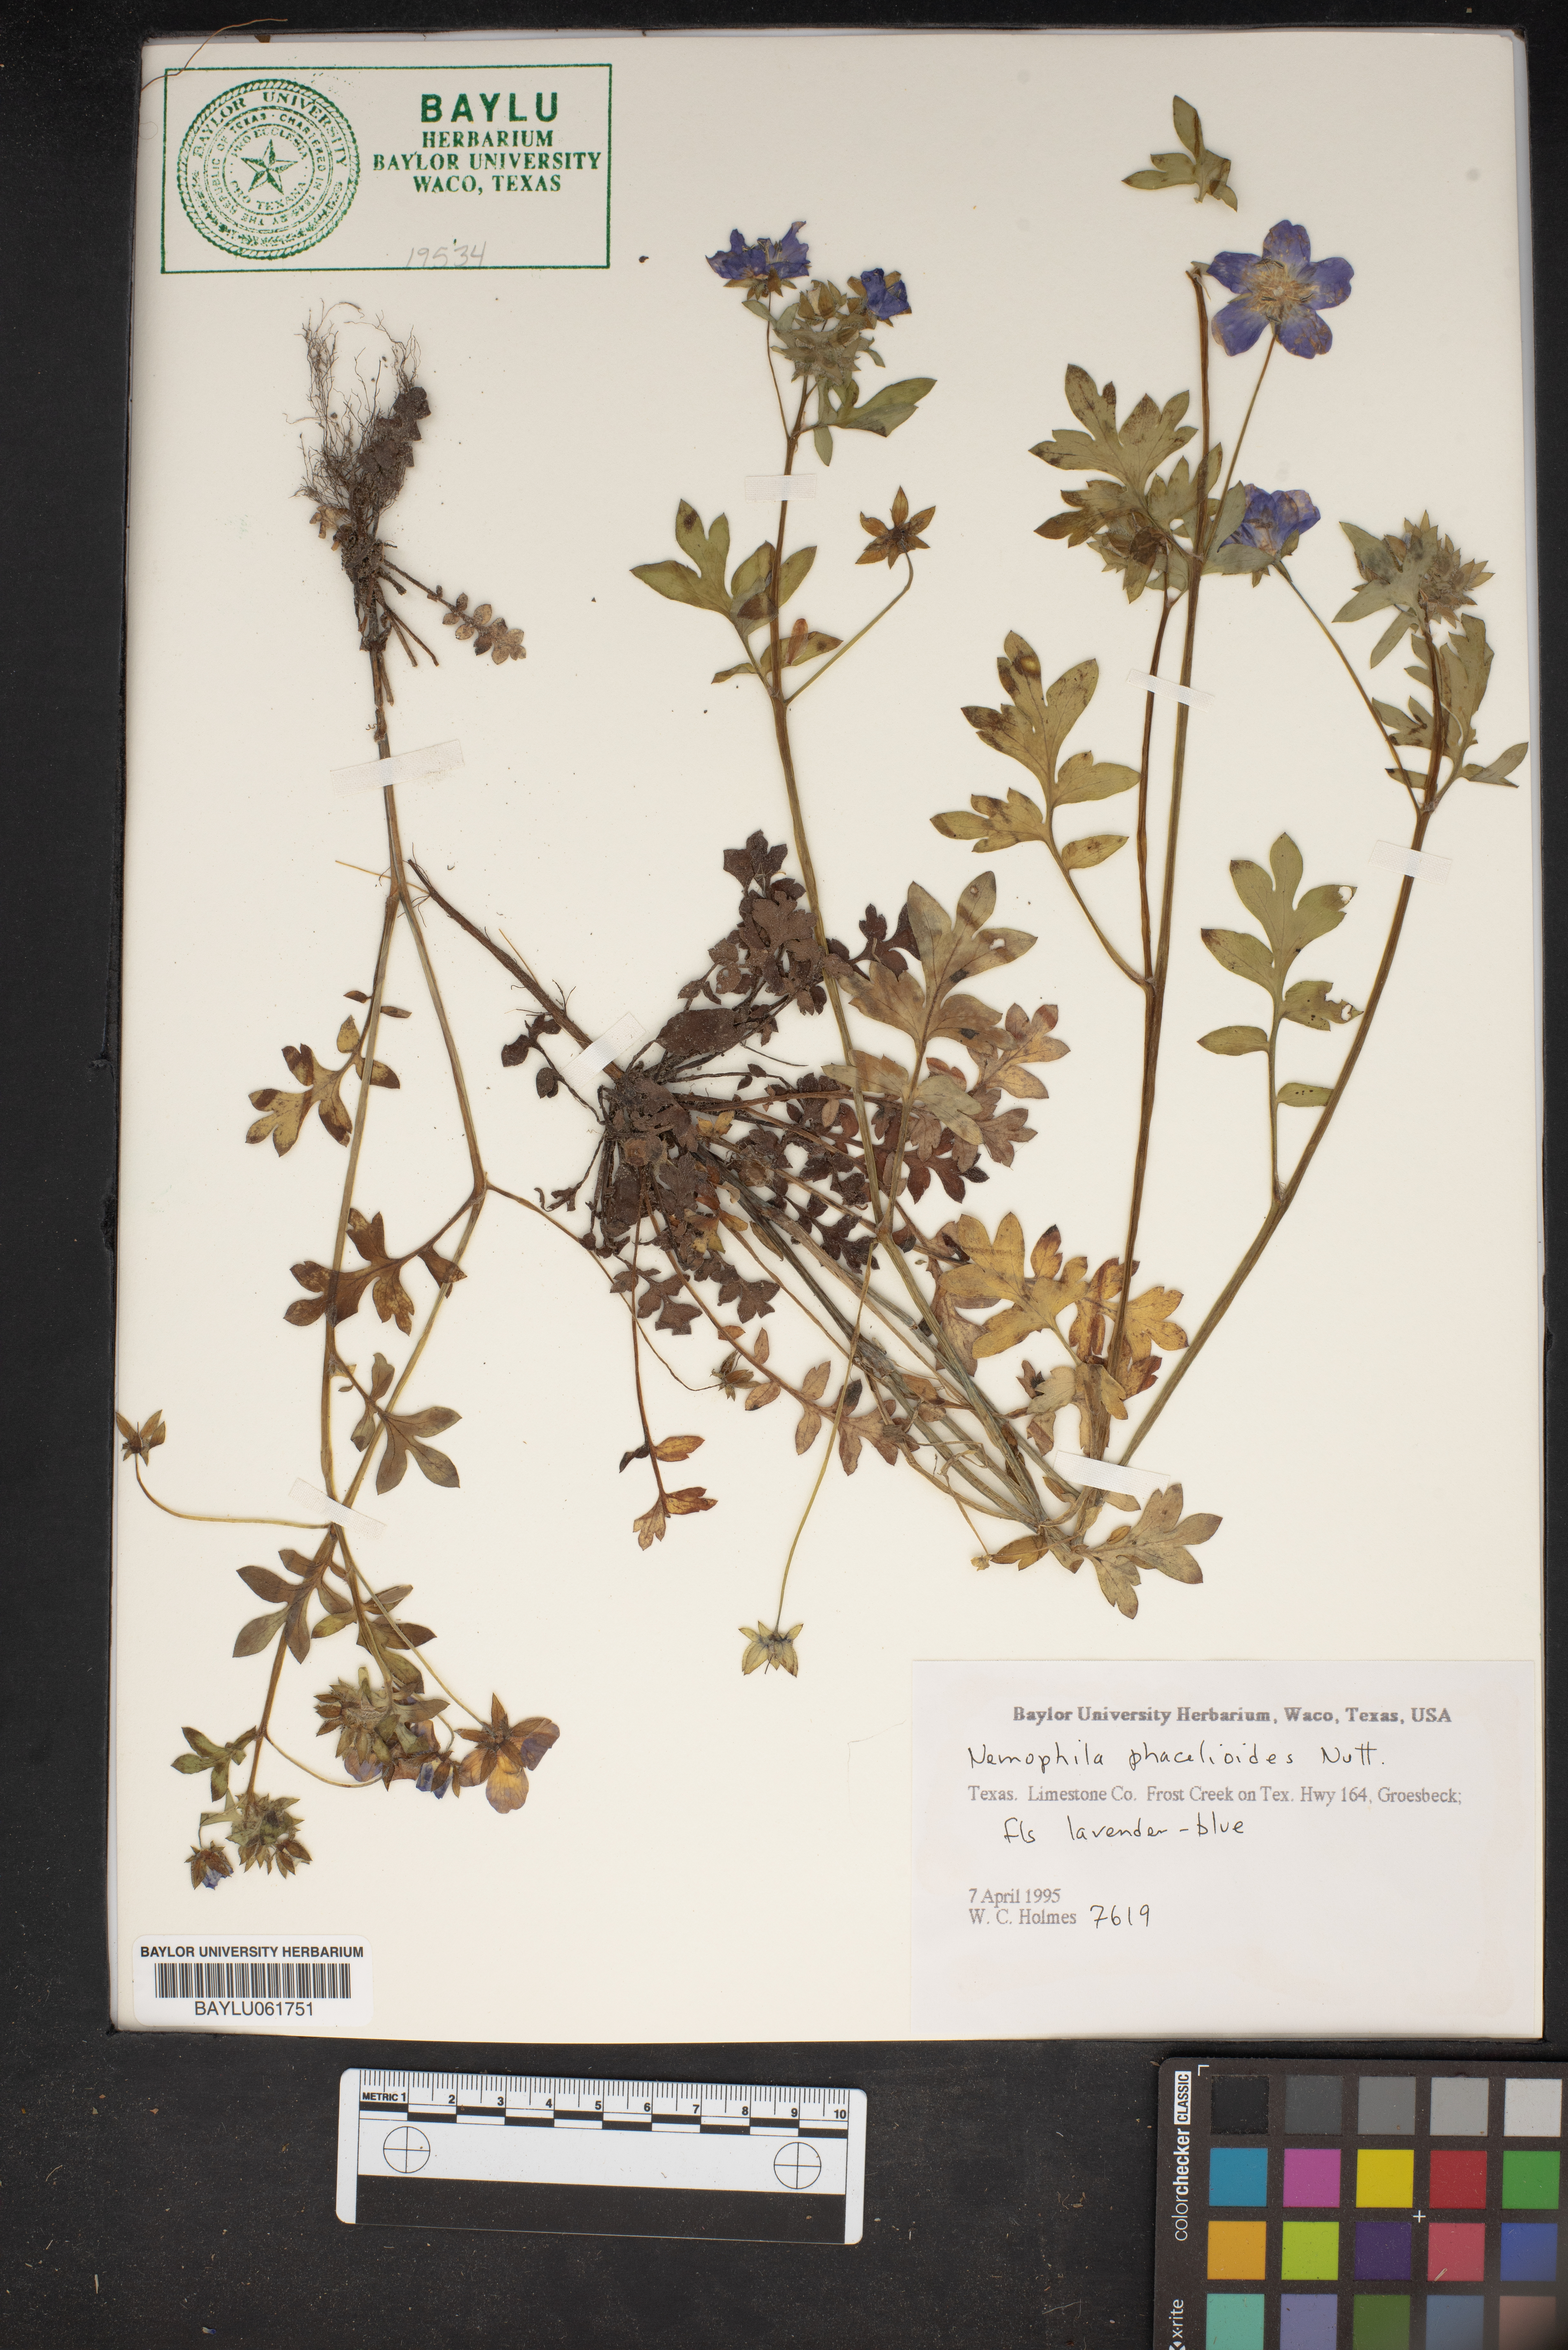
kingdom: Plantae
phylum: Tracheophyta
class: Magnoliopsida
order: Boraginales
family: Hydrophyllaceae
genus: Nemophila
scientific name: Nemophila phacelioides
